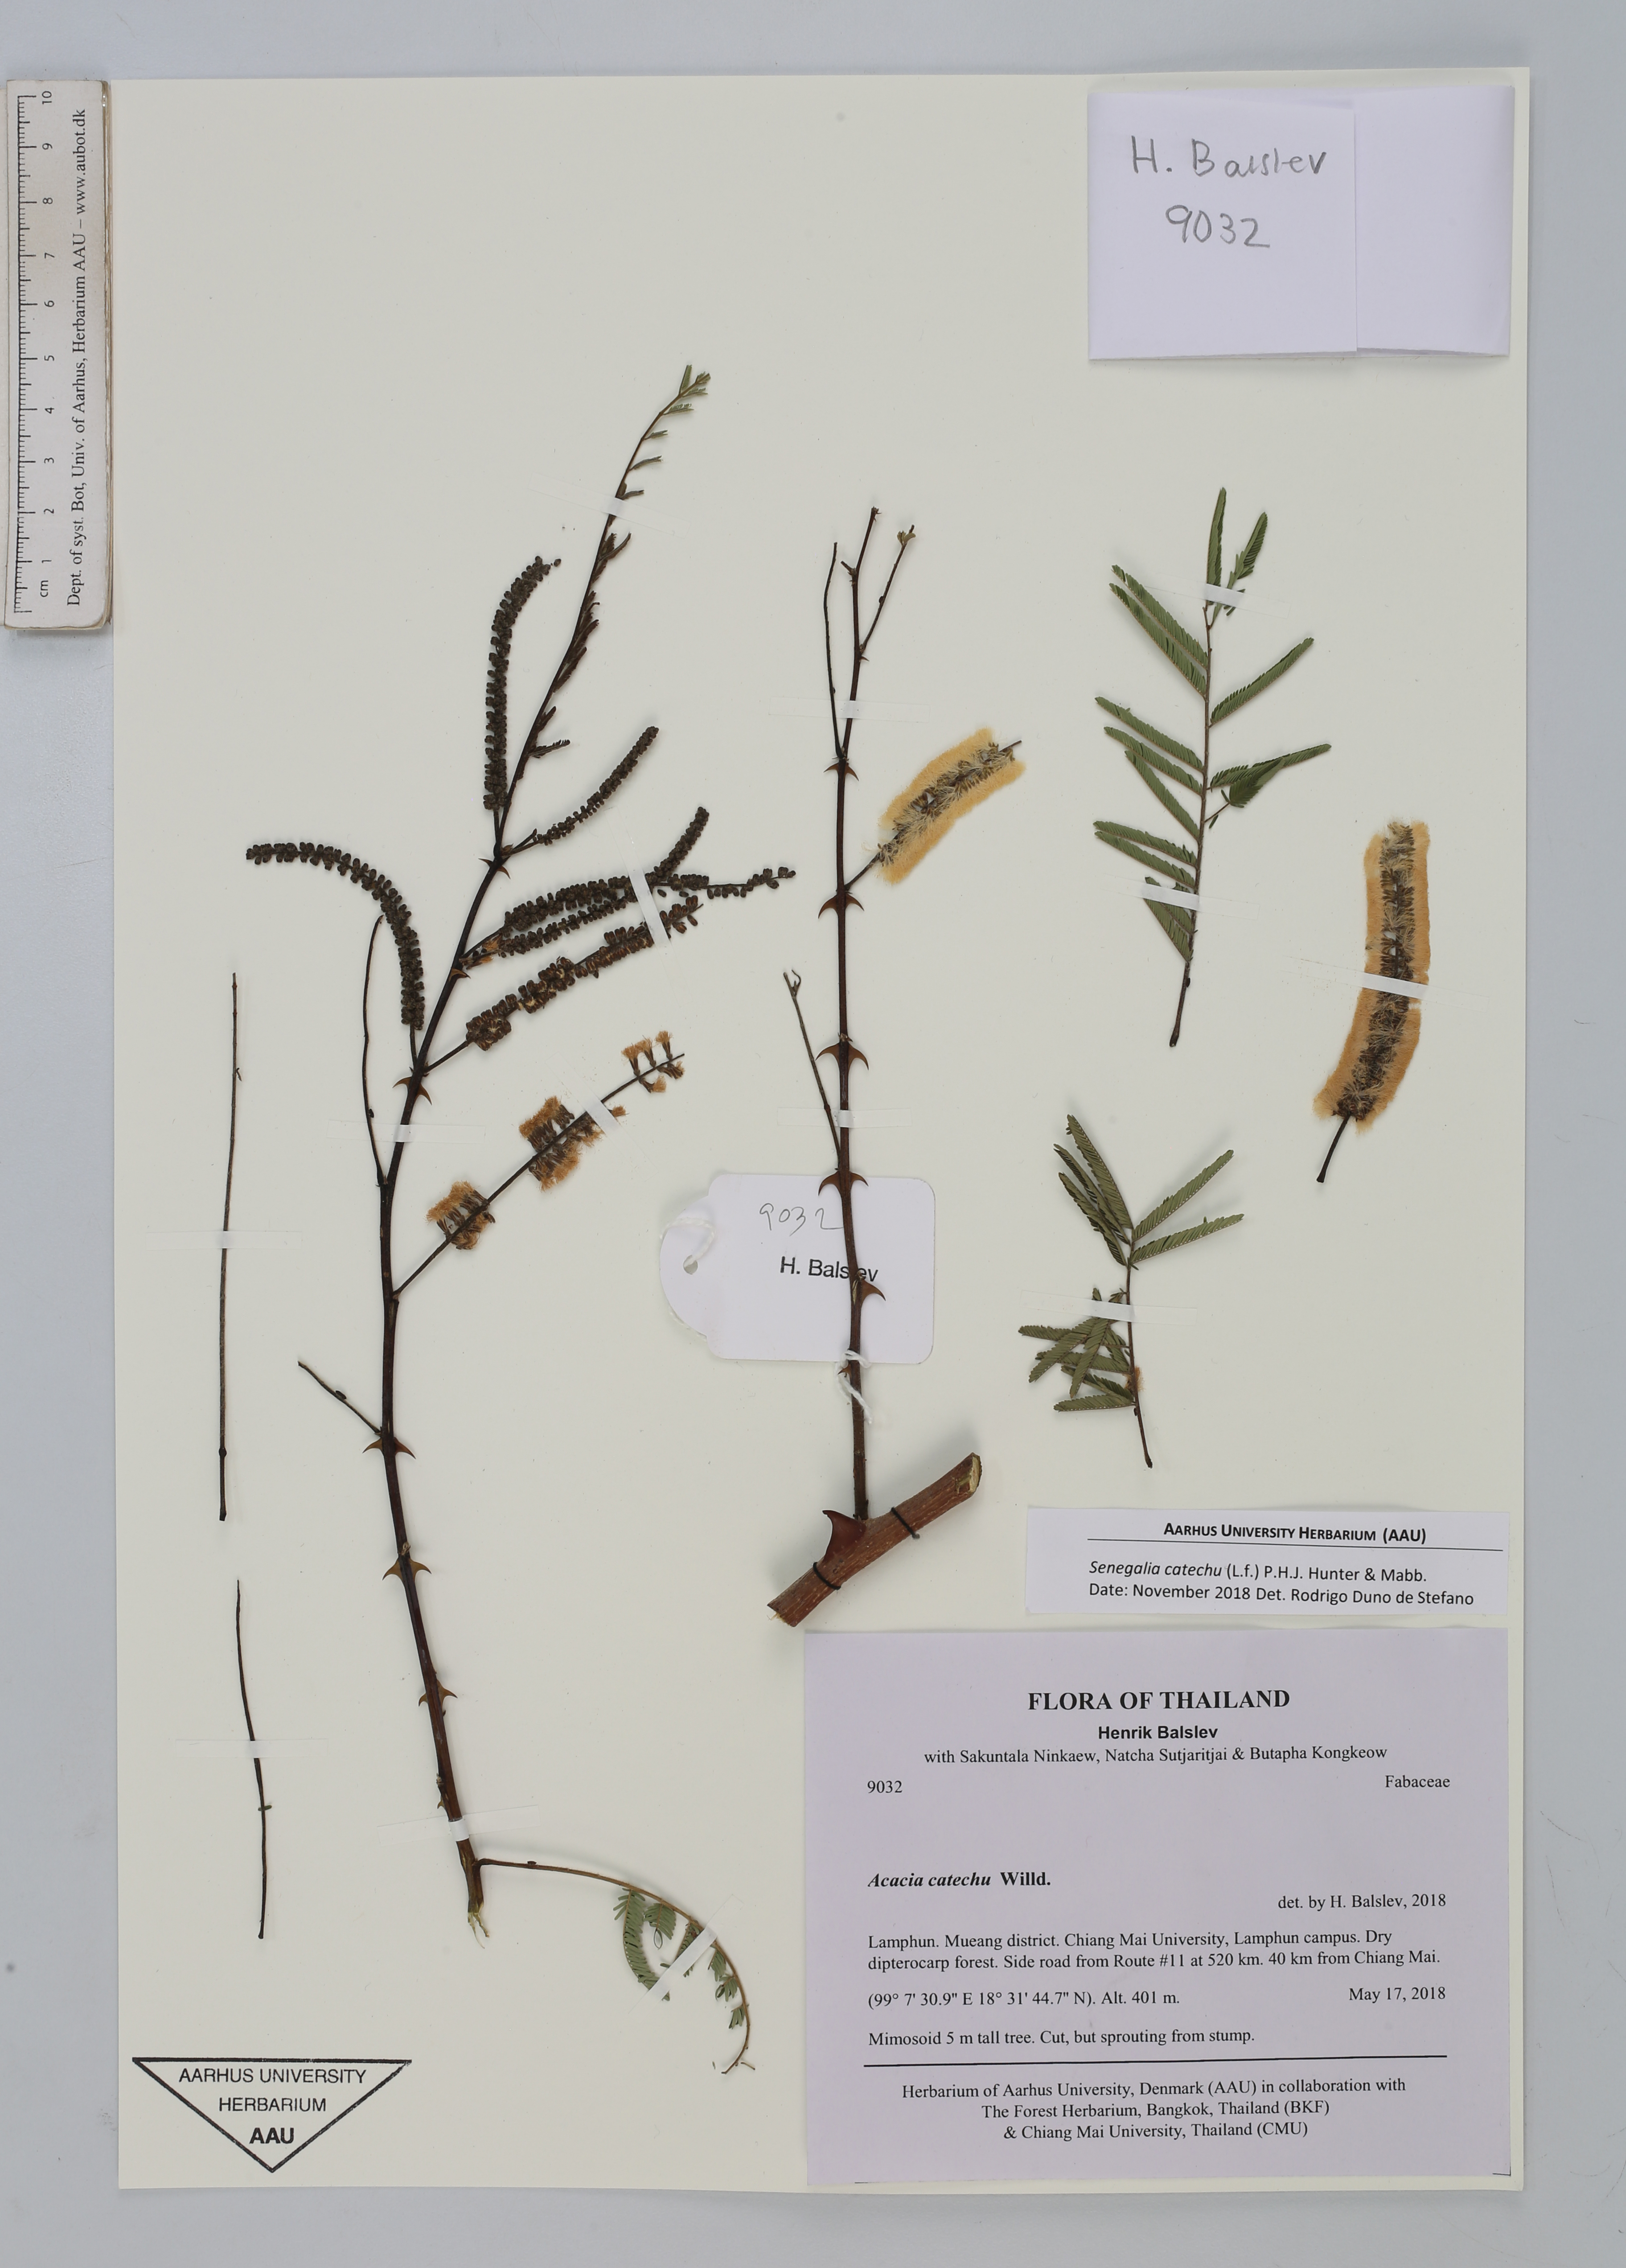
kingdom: Plantae
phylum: Tracheophyta
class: Magnoliopsida
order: Fabales
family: Fabaceae
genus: Senegalia
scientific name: Senegalia catechu
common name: Black cutch
